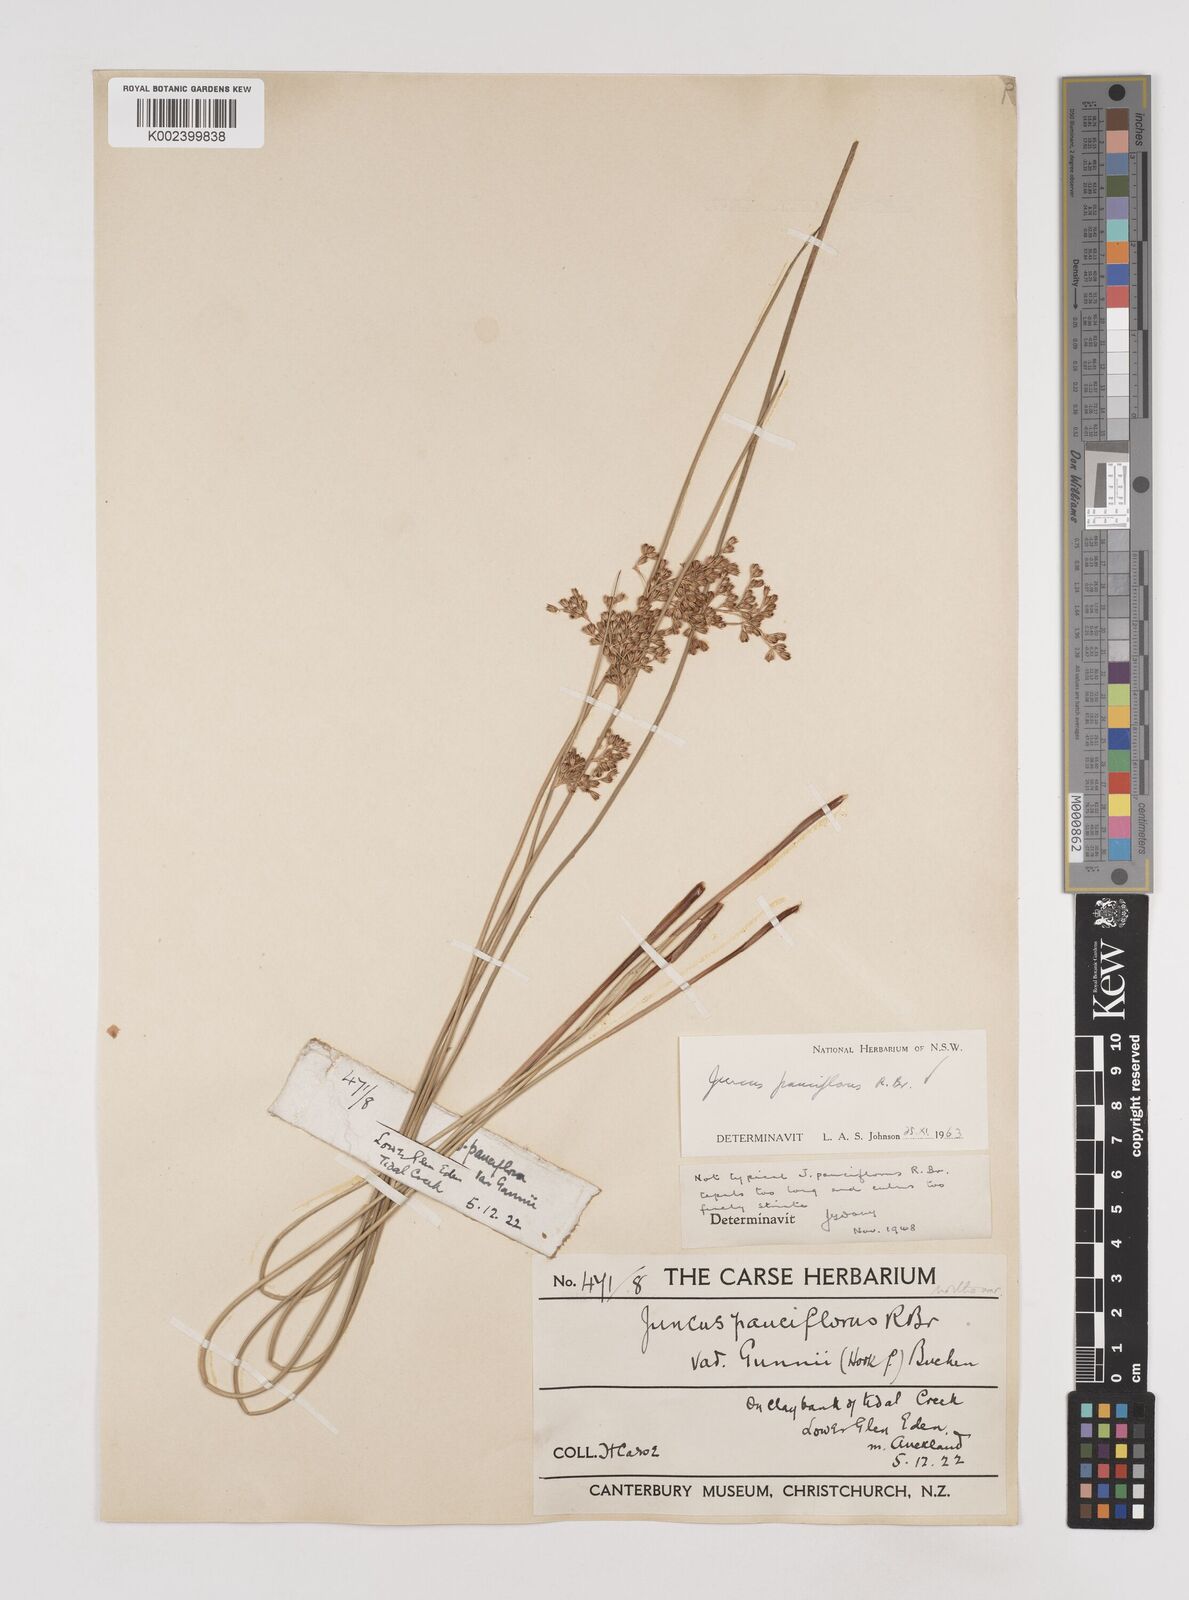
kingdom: Plantae
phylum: Tracheophyta
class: Liliopsida
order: Poales
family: Juncaceae
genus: Juncus
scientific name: Juncus pallidus
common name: Great soft-rush
